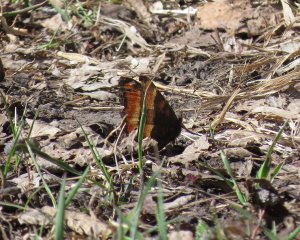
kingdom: Animalia
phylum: Arthropoda
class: Insecta
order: Lepidoptera
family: Nymphalidae
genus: Aglais
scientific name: Aglais milberti
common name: Milbert's Tortoiseshell
